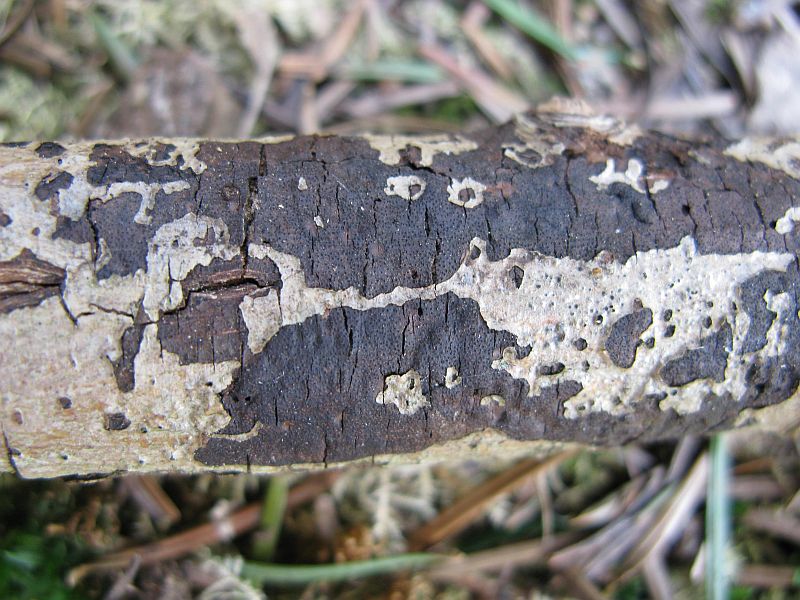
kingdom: Fungi
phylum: Ascomycota
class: Sordariomycetes
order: Xylariales
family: Diatrypaceae
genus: Eutypa
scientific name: Eutypa lata
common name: almindelig kulskorpe
